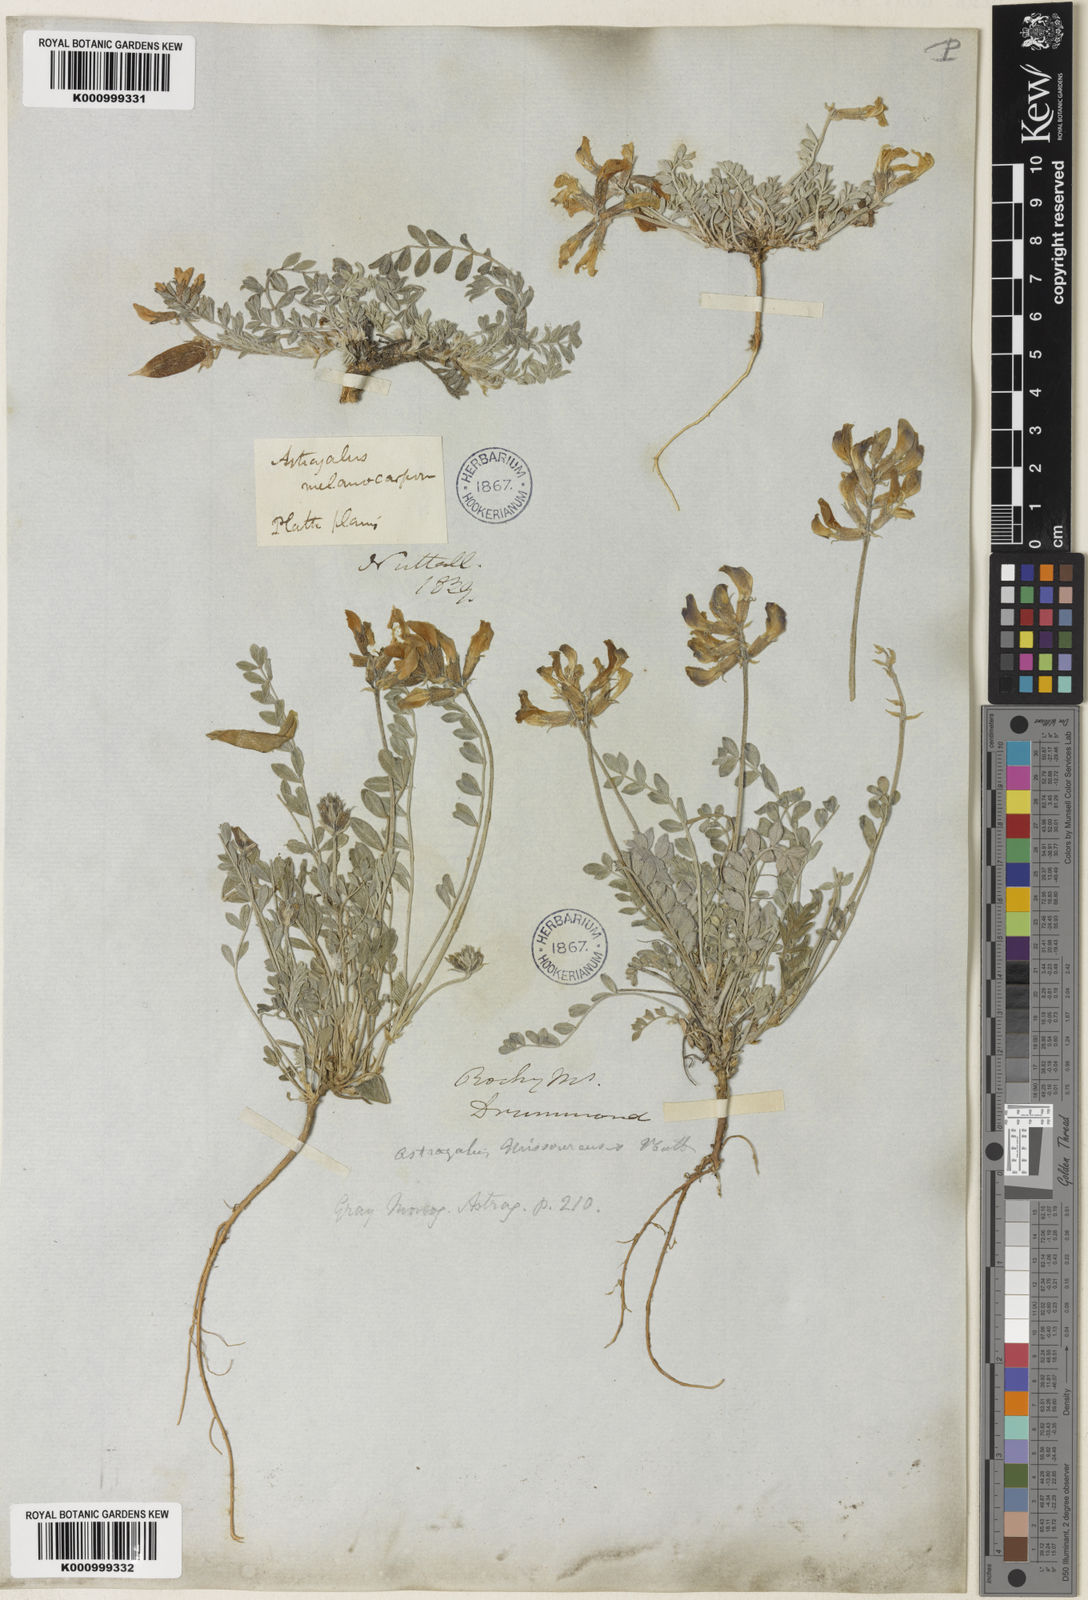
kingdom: Plantae
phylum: Tracheophyta
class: Magnoliopsida
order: Fabales
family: Fabaceae
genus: Astragalus
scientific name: Astragalus missouriensis
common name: Missouri milk-vetch
